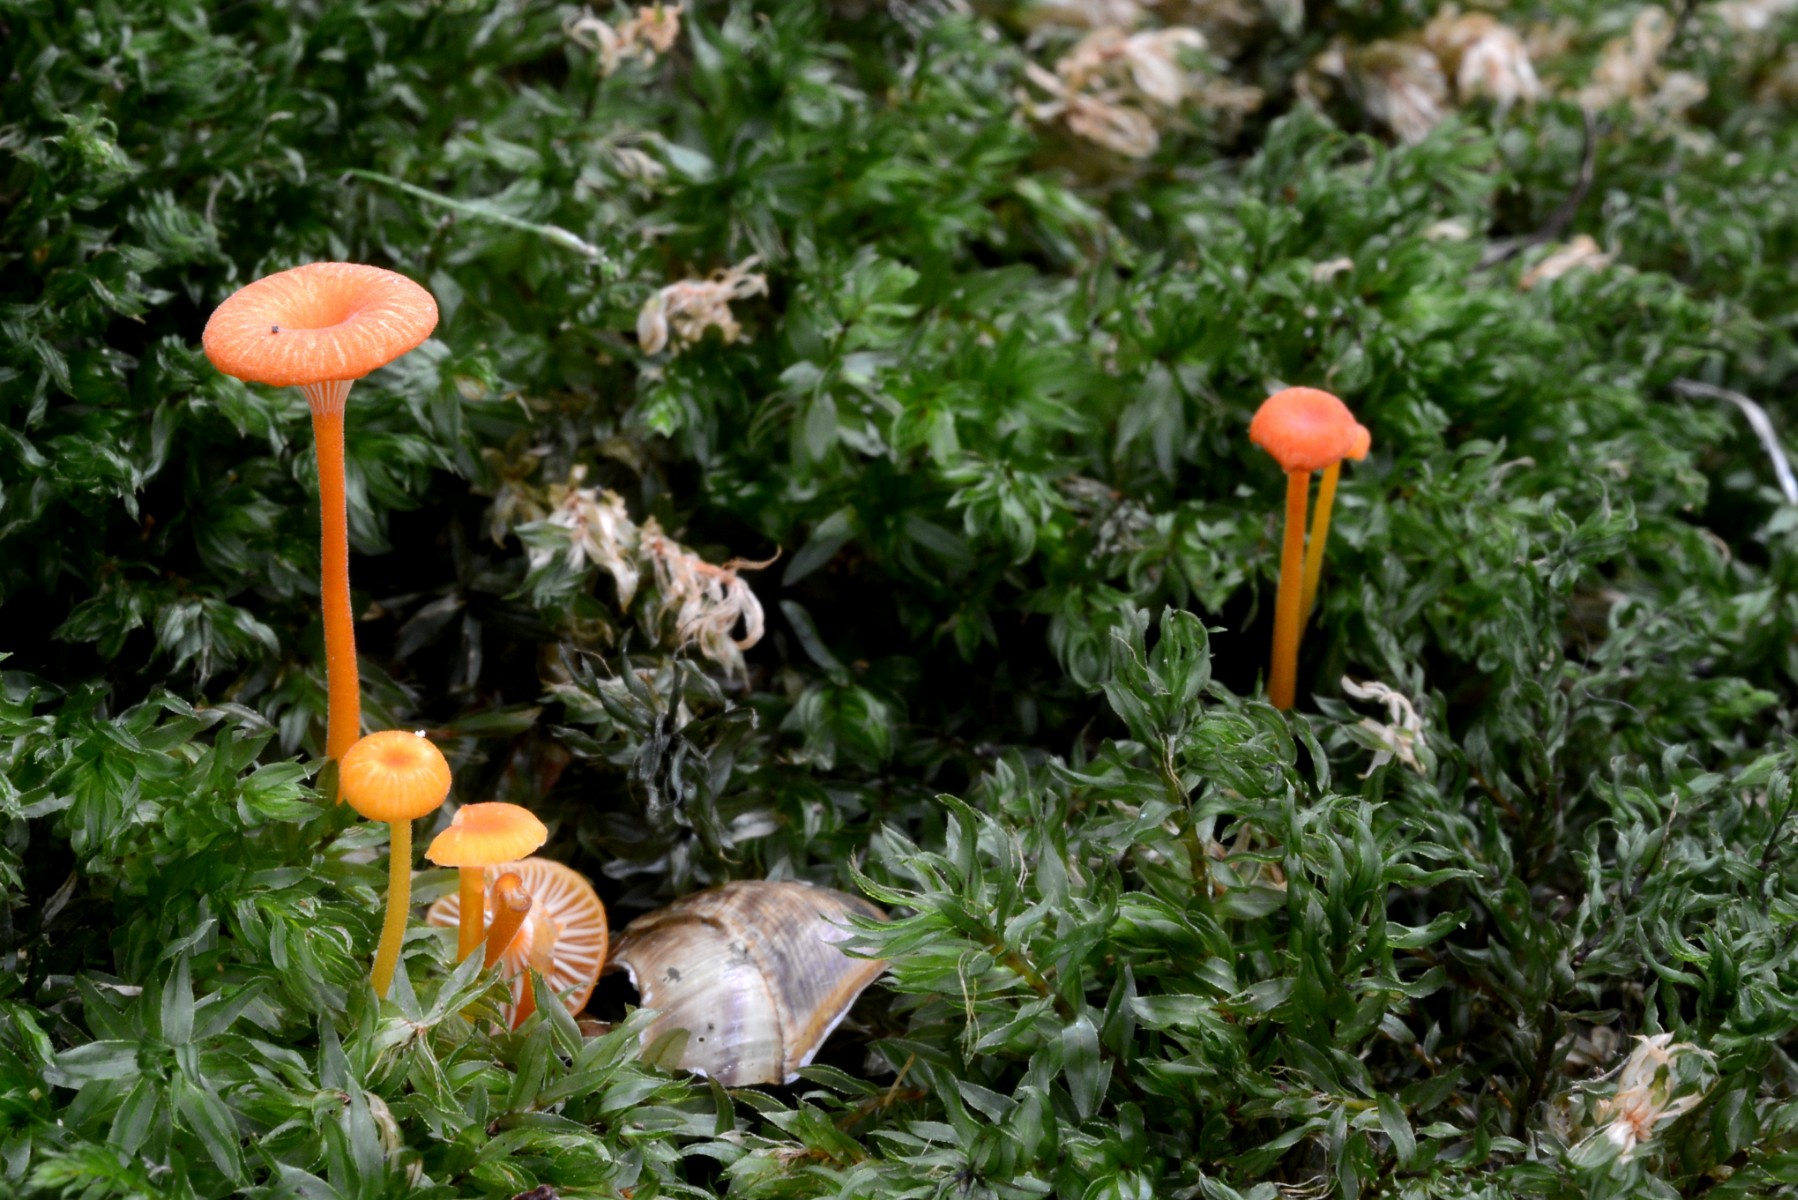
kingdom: Fungi
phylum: Basidiomycota
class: Agaricomycetes
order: Hymenochaetales
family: Rickenellaceae
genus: Rickenella
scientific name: Rickenella fibula
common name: orange mosnavlehat
